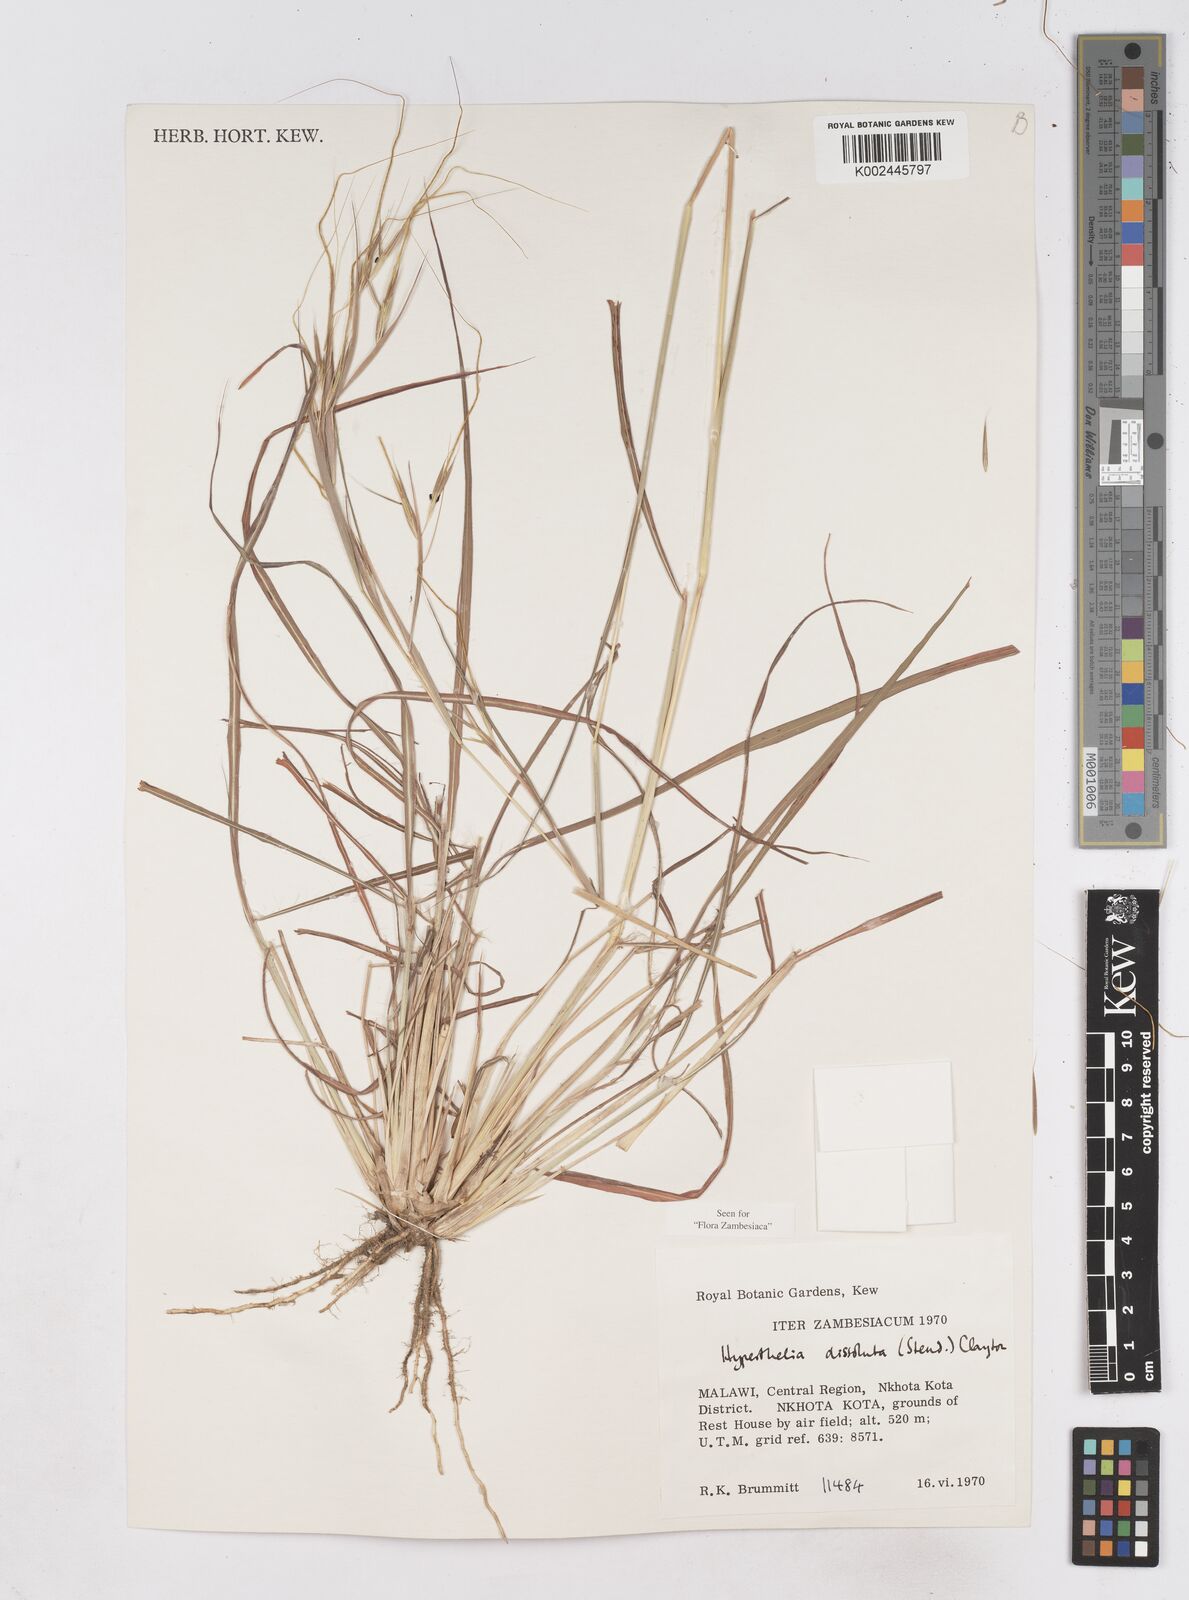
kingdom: Plantae
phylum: Tracheophyta
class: Liliopsida
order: Poales
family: Poaceae
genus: Hyperthelia
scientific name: Hyperthelia dissoluta
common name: Yellow thatching grass
